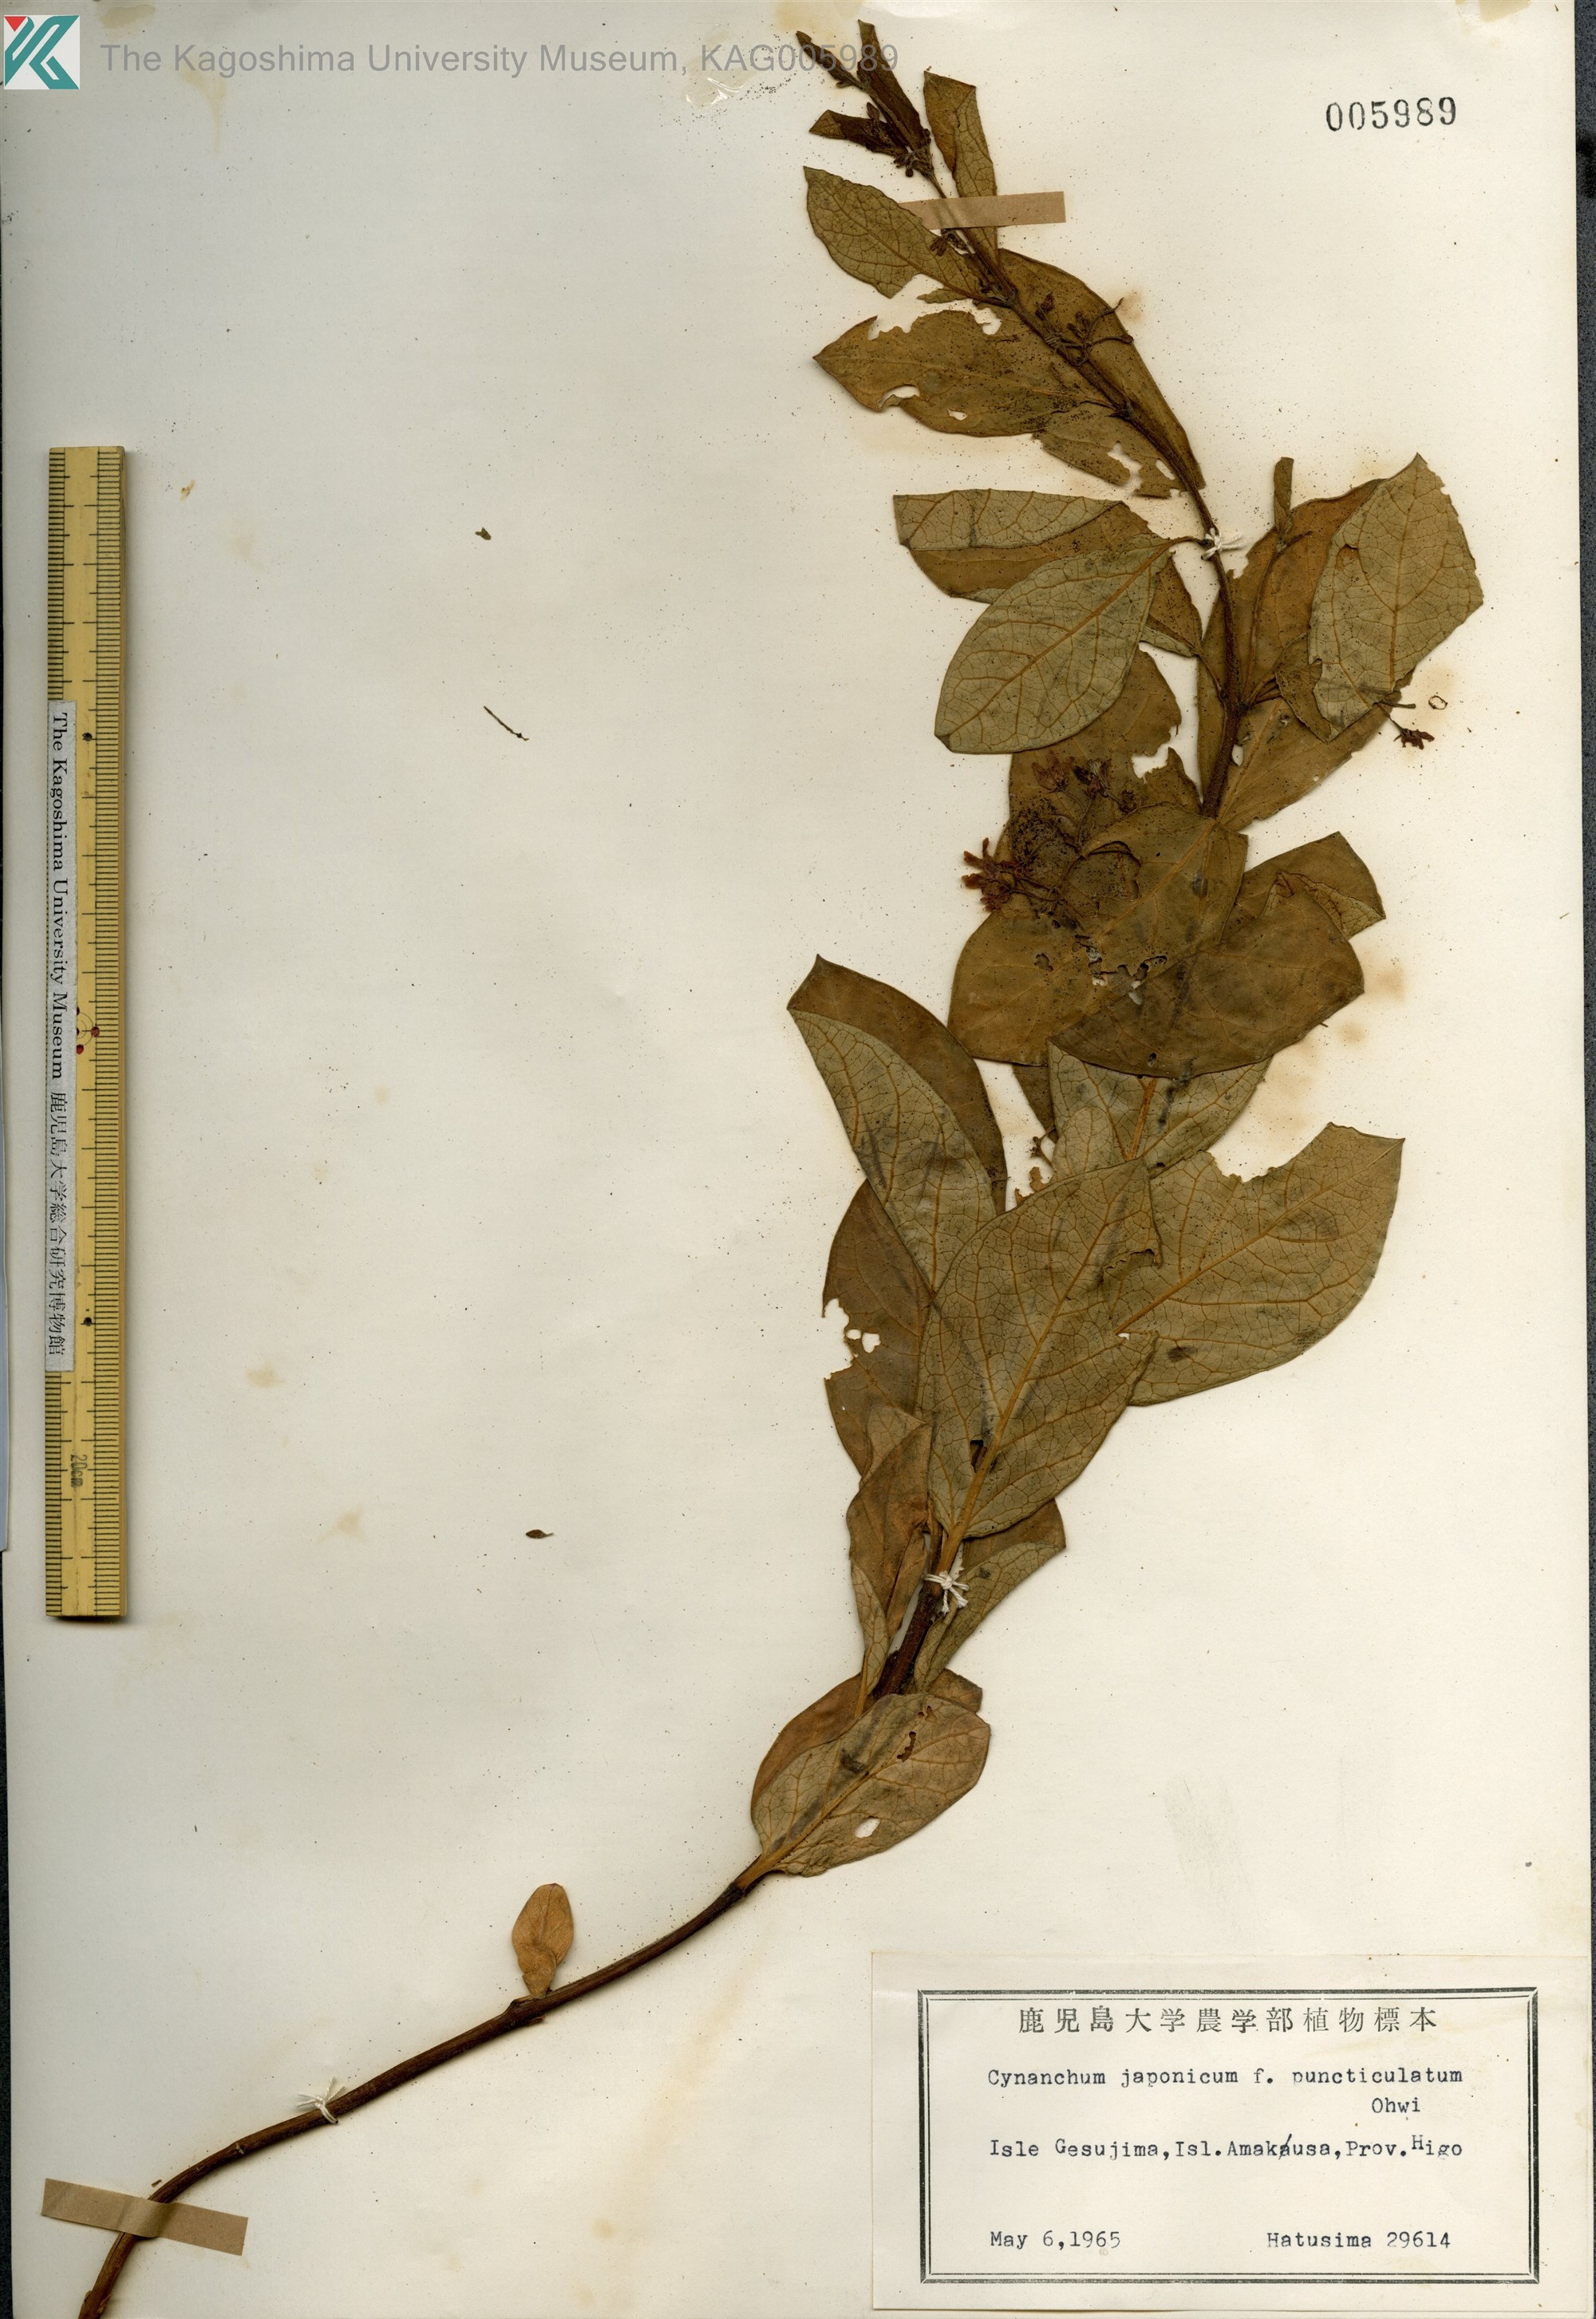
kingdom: Plantae
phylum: Tracheophyta
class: Magnoliopsida
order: Gentianales
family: Apocynaceae
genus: Vincetoxicum
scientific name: Vincetoxicum japonicum
